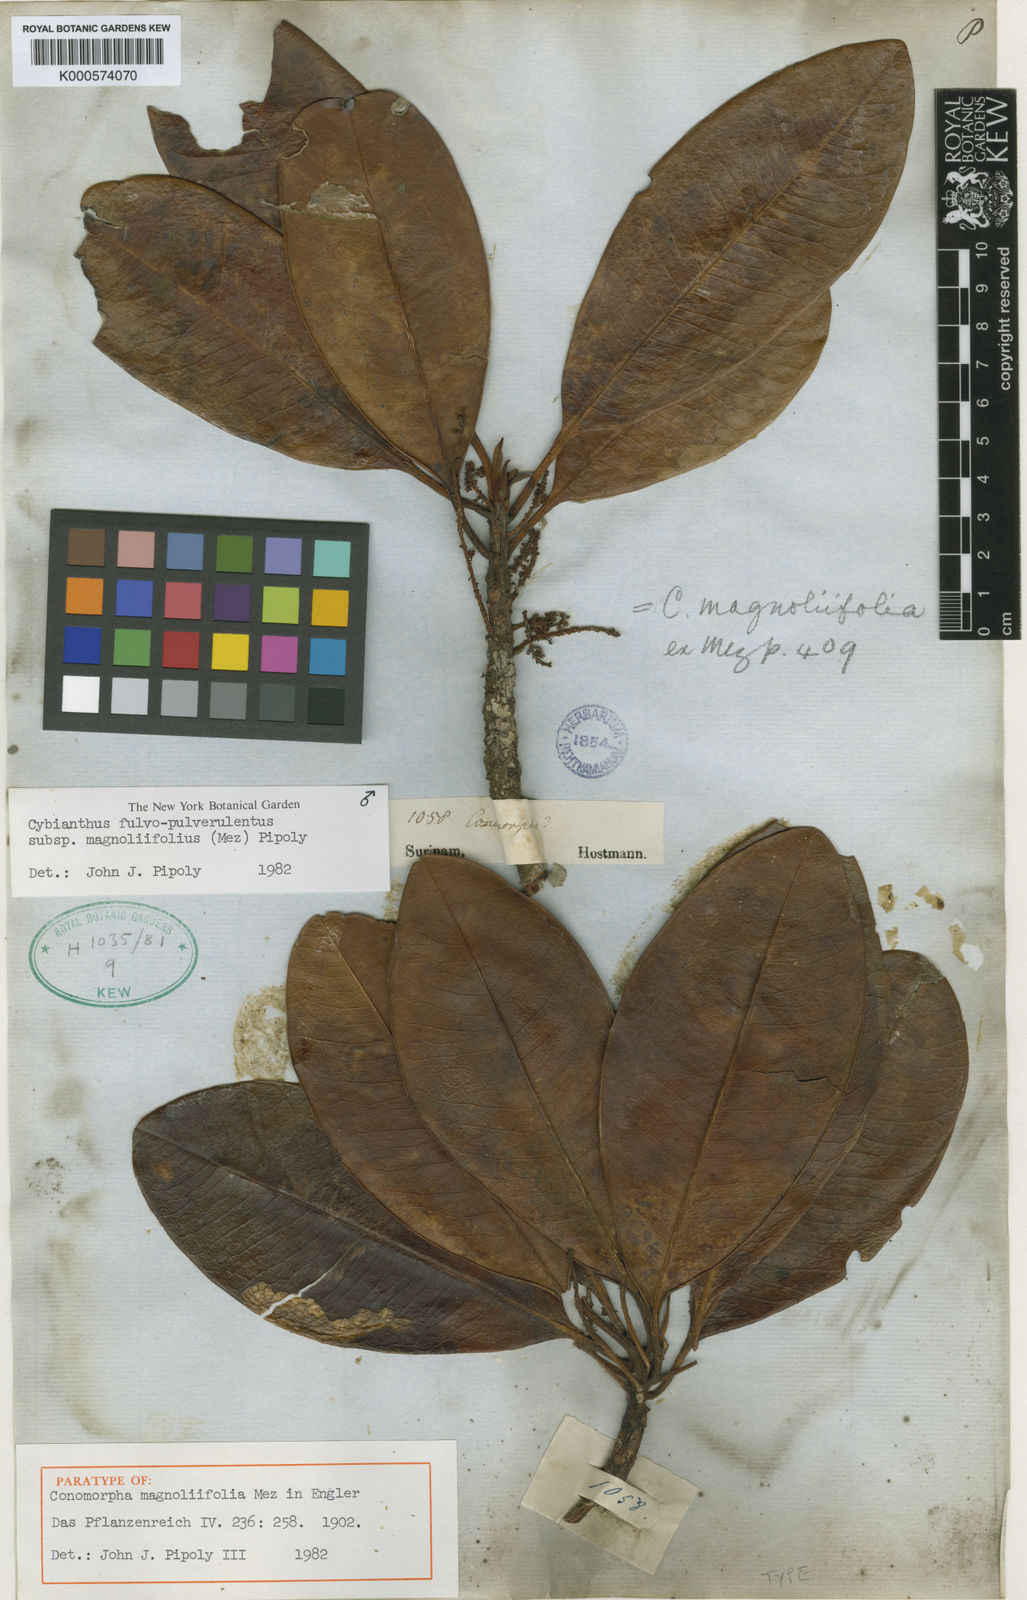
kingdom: Plantae
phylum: Tracheophyta
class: Magnoliopsida
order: Ericales
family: Primulaceae
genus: Cybianthus
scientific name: Cybianthus fulvopulverulentus
